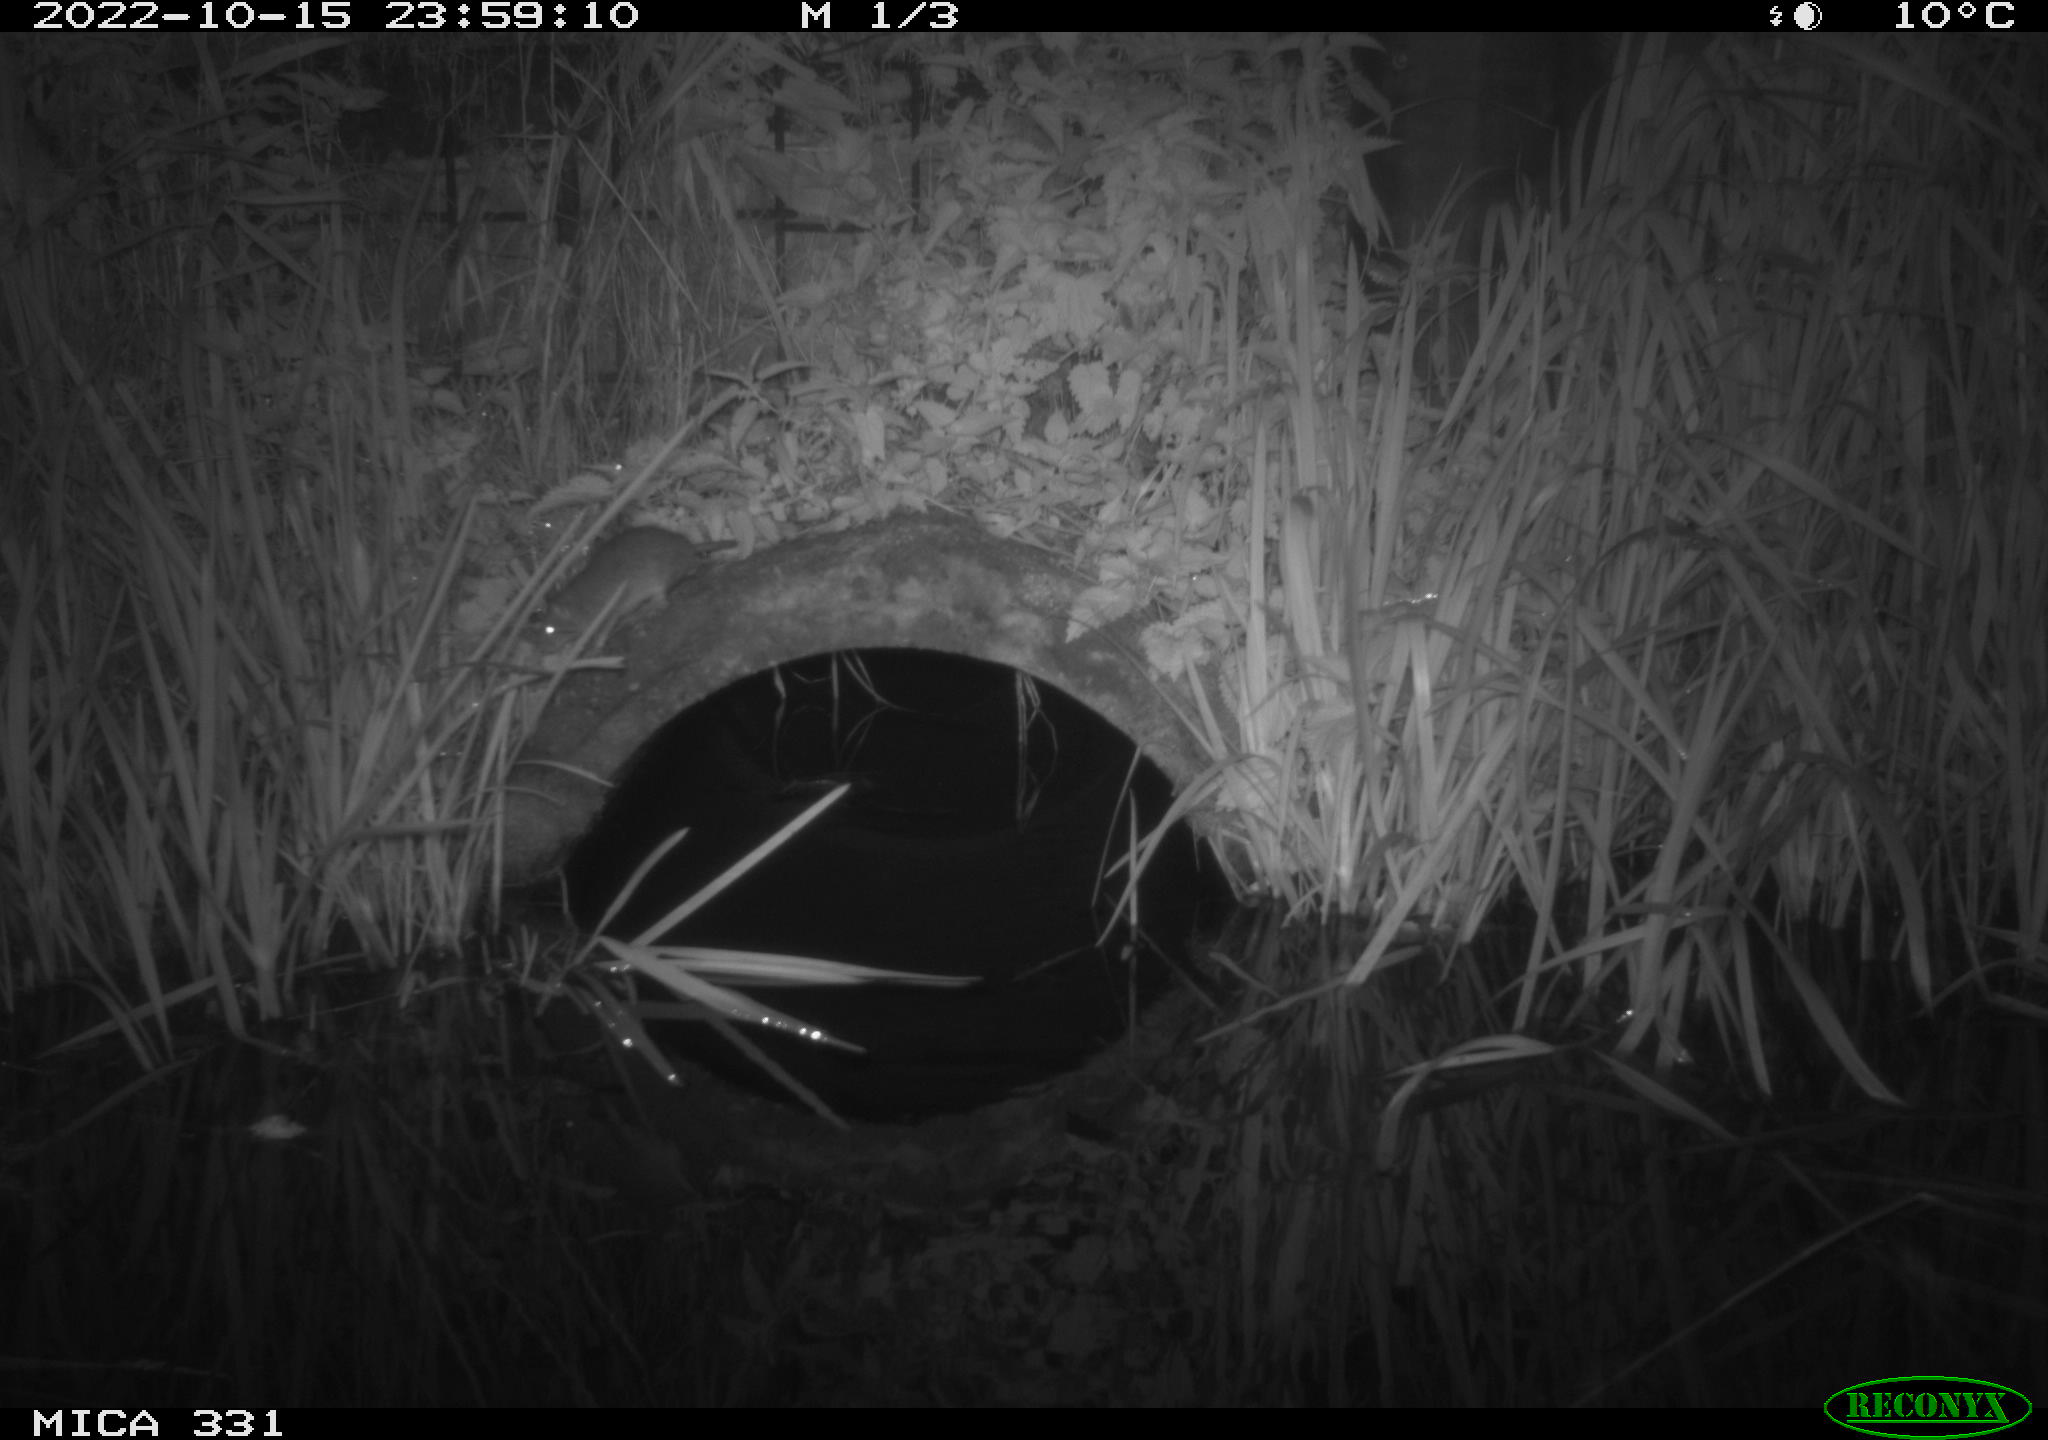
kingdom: Animalia
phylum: Chordata
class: Mammalia
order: Rodentia
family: Muridae
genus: Rattus
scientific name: Rattus norvegicus
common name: Brown rat
